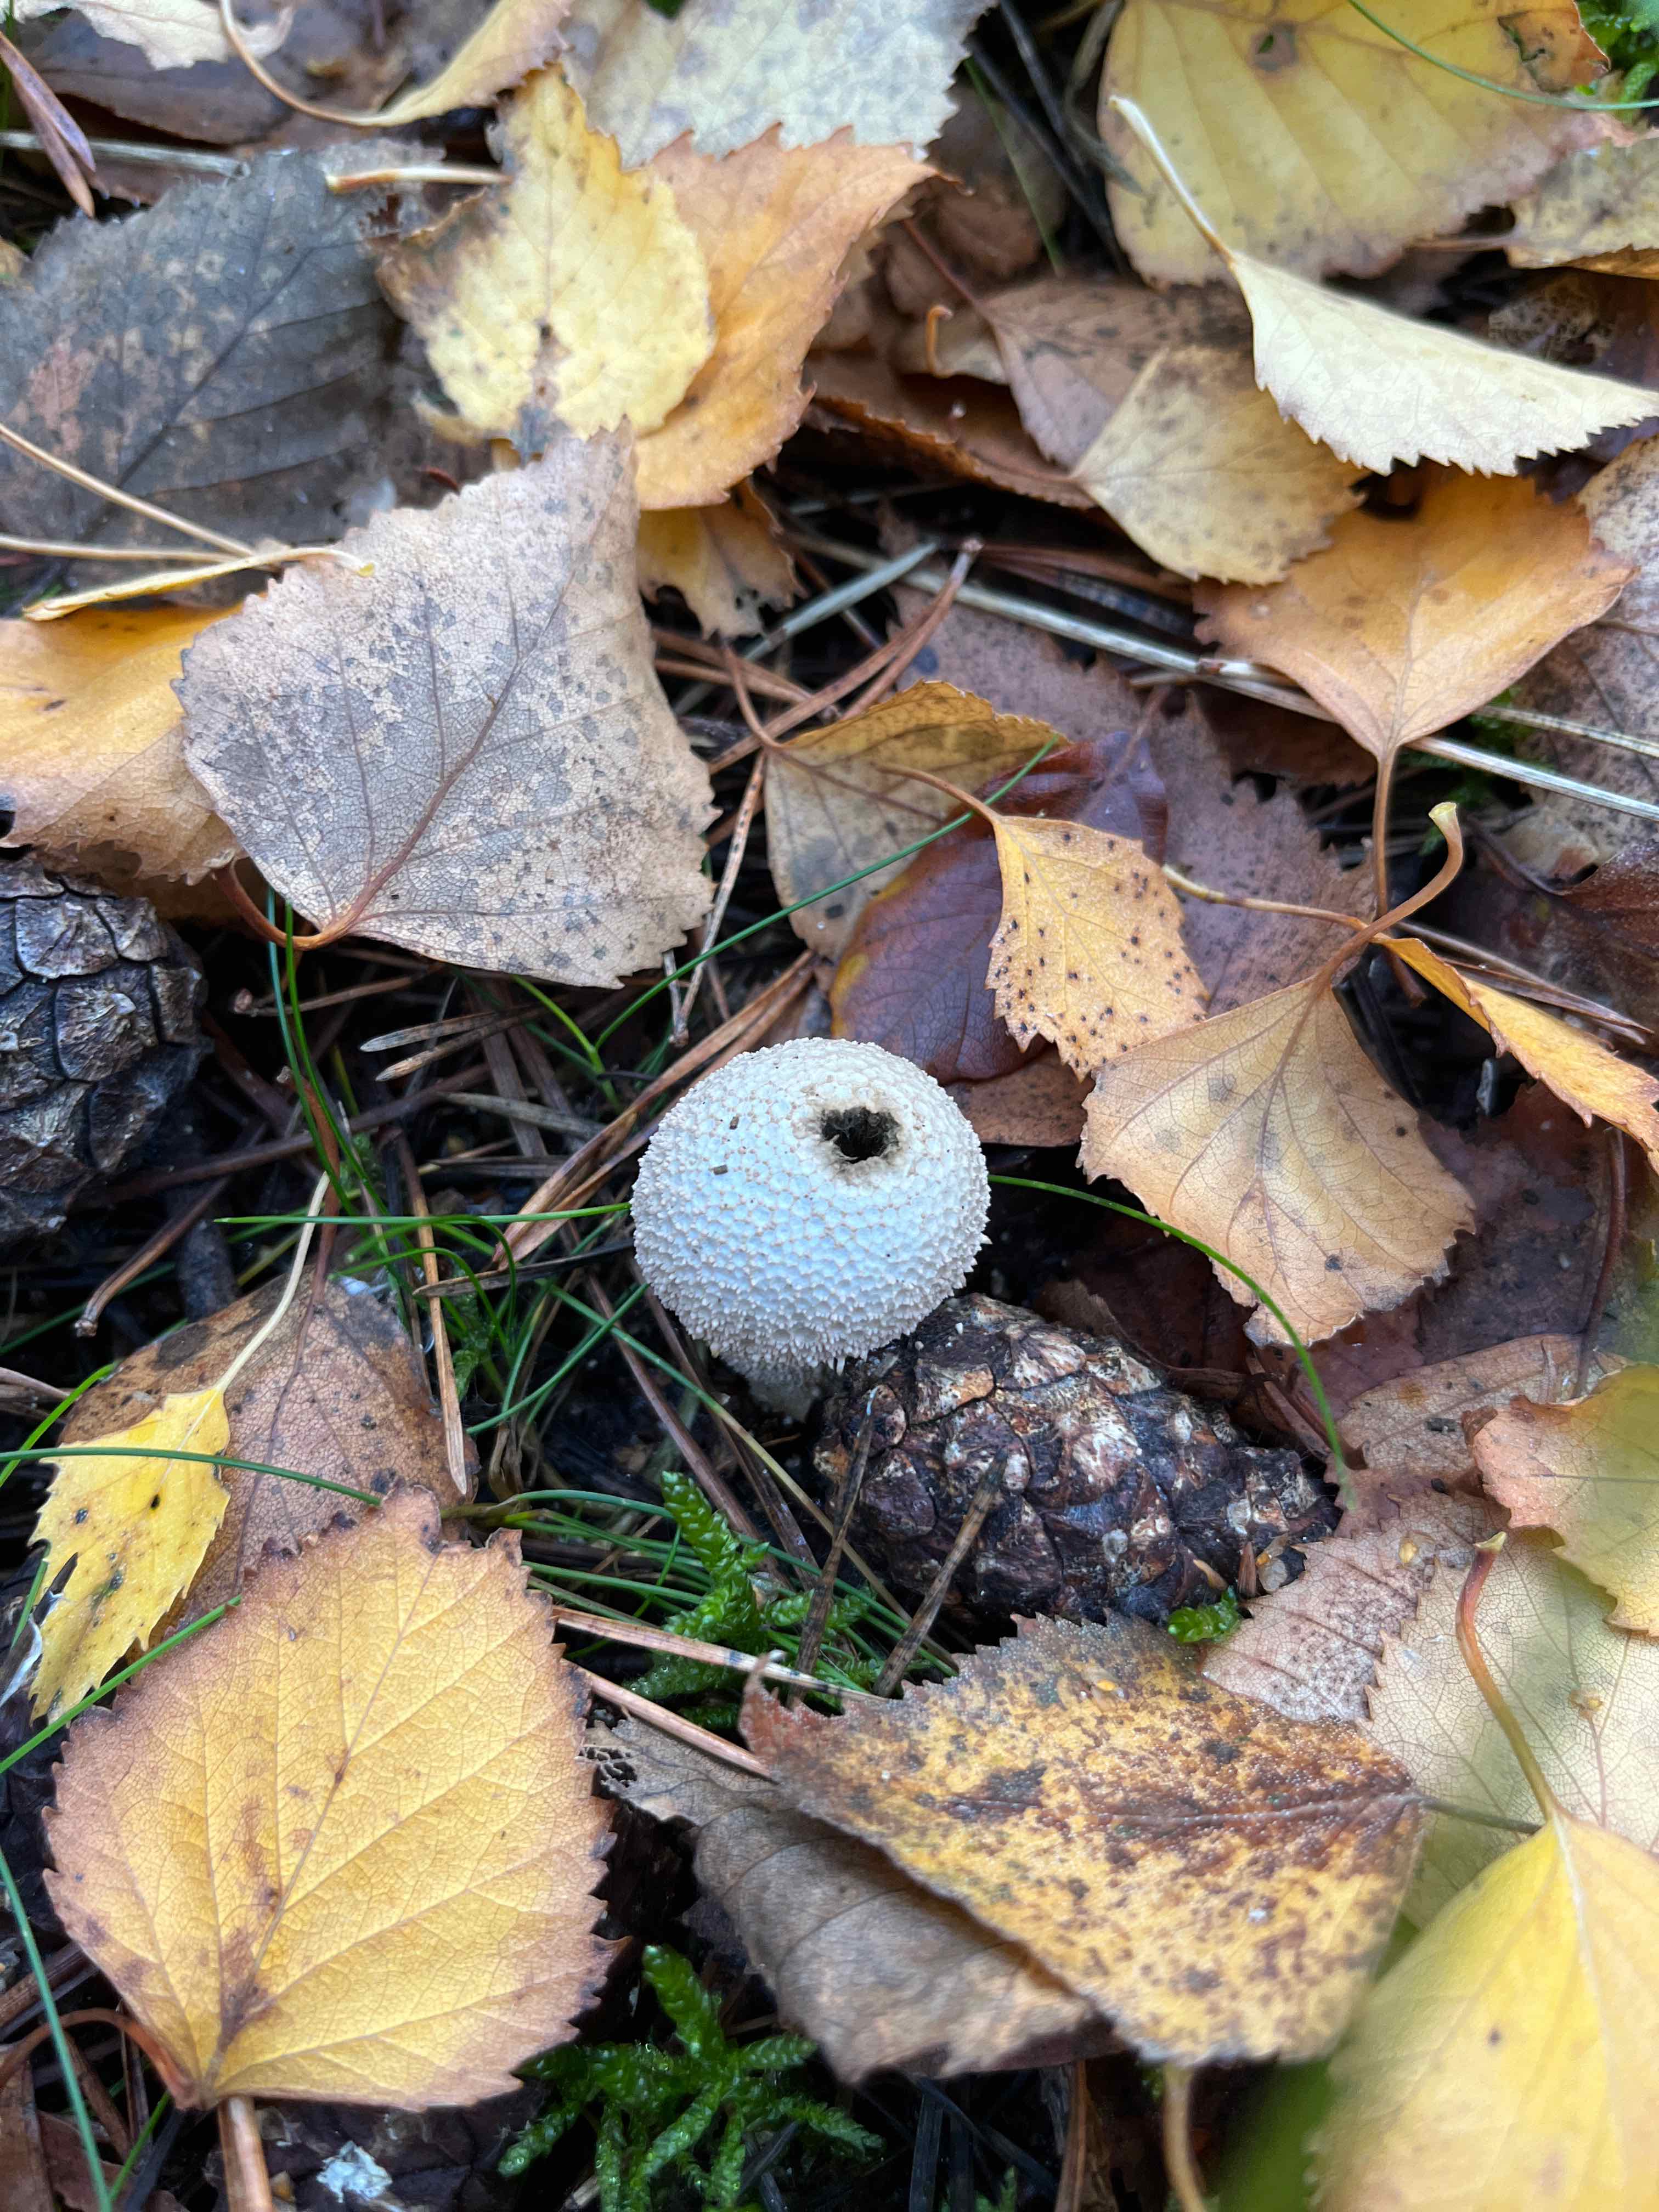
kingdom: Fungi
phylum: Basidiomycota
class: Agaricomycetes
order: Agaricales
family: Lycoperdaceae
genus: Lycoperdon
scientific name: Lycoperdon perlatum
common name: krystal-støvbold
